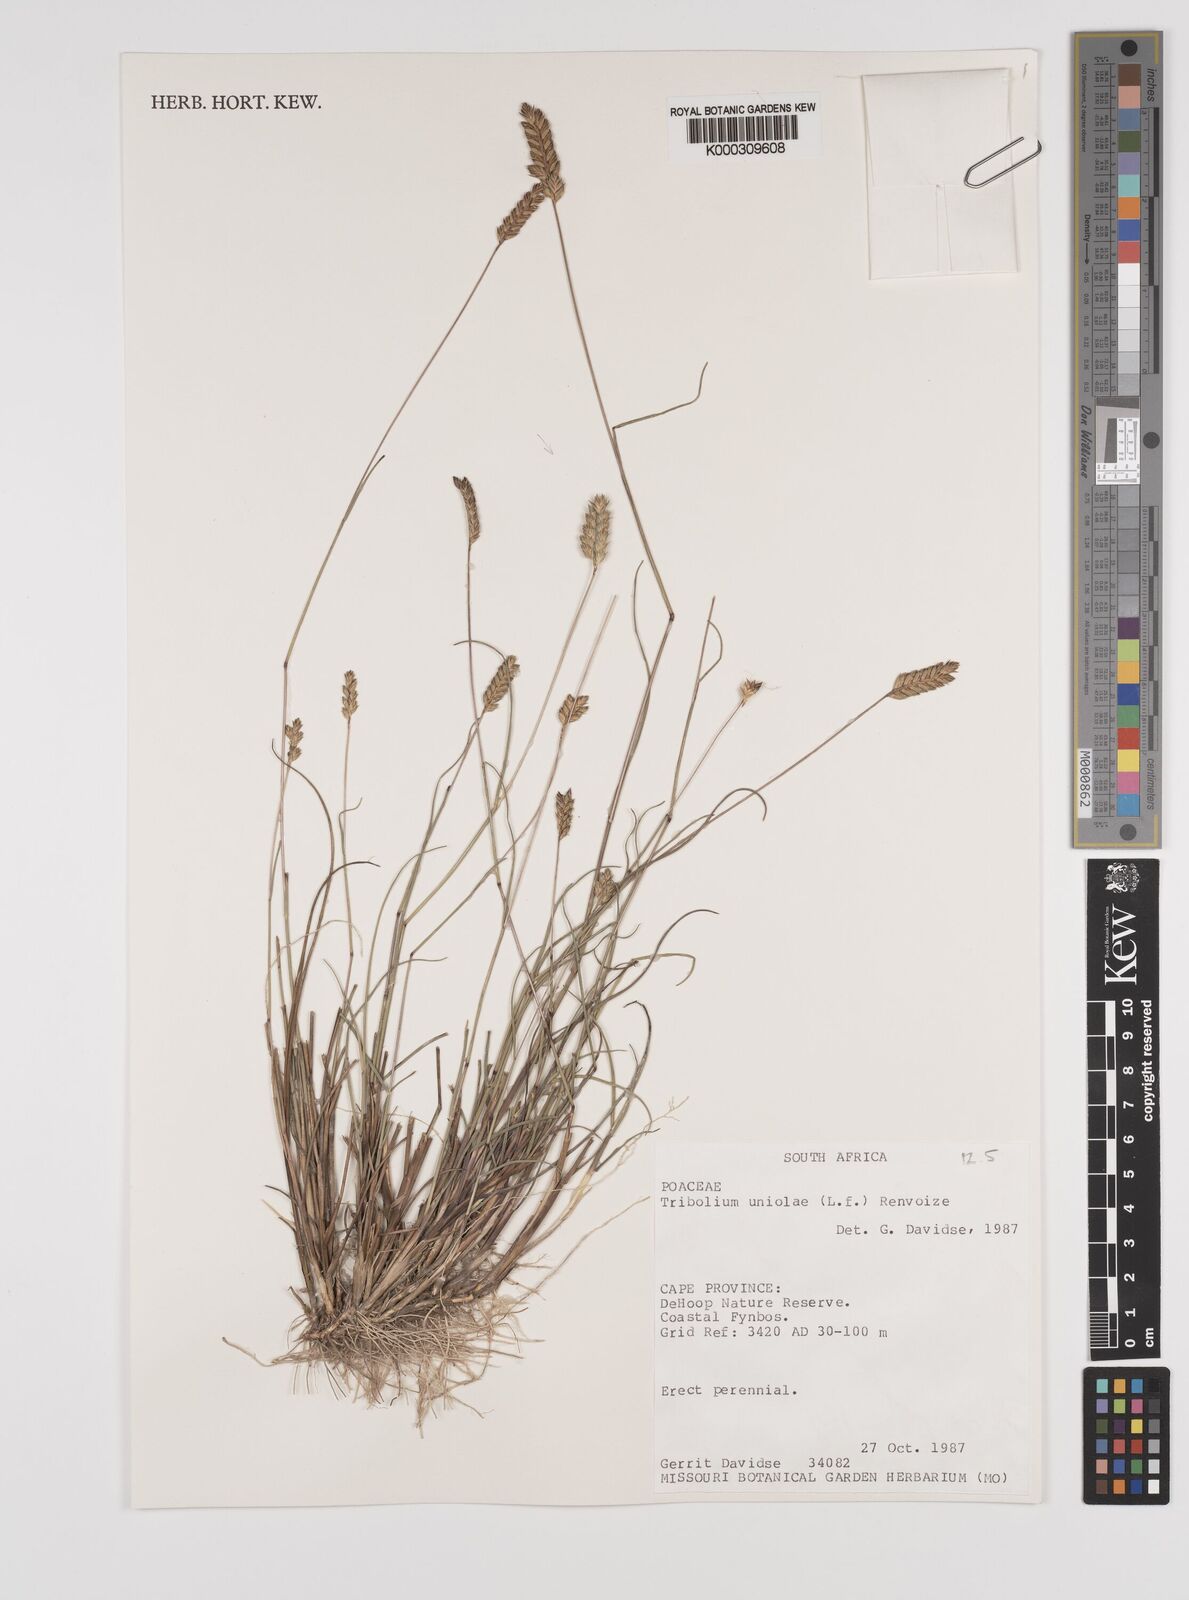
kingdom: Plantae
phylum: Tracheophyta
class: Liliopsida
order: Poales
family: Poaceae
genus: Tribolium
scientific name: Tribolium uniolae
